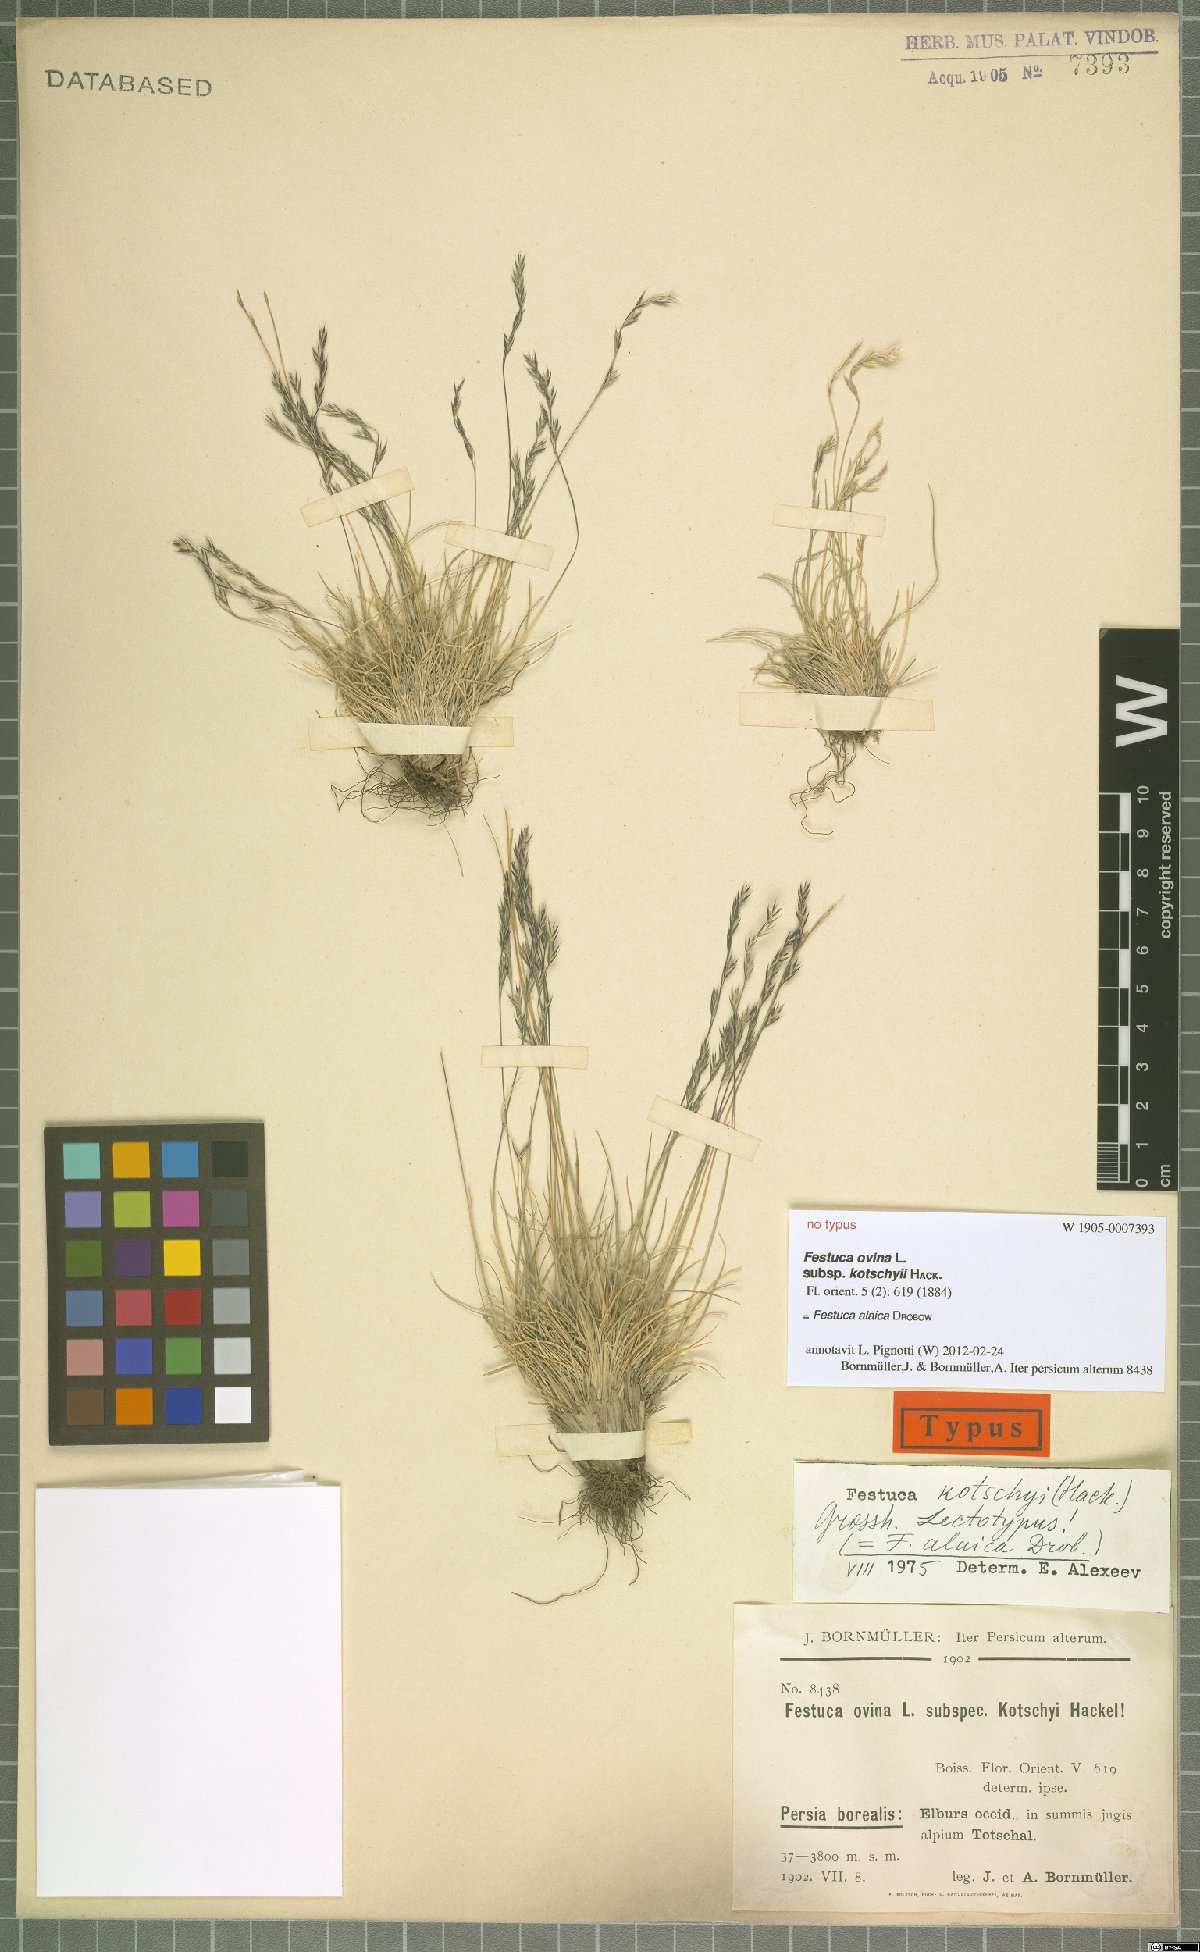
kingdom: Plantae
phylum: Tracheophyta
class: Liliopsida
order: Poales
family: Poaceae
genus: Festuca
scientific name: Festuca alaica
